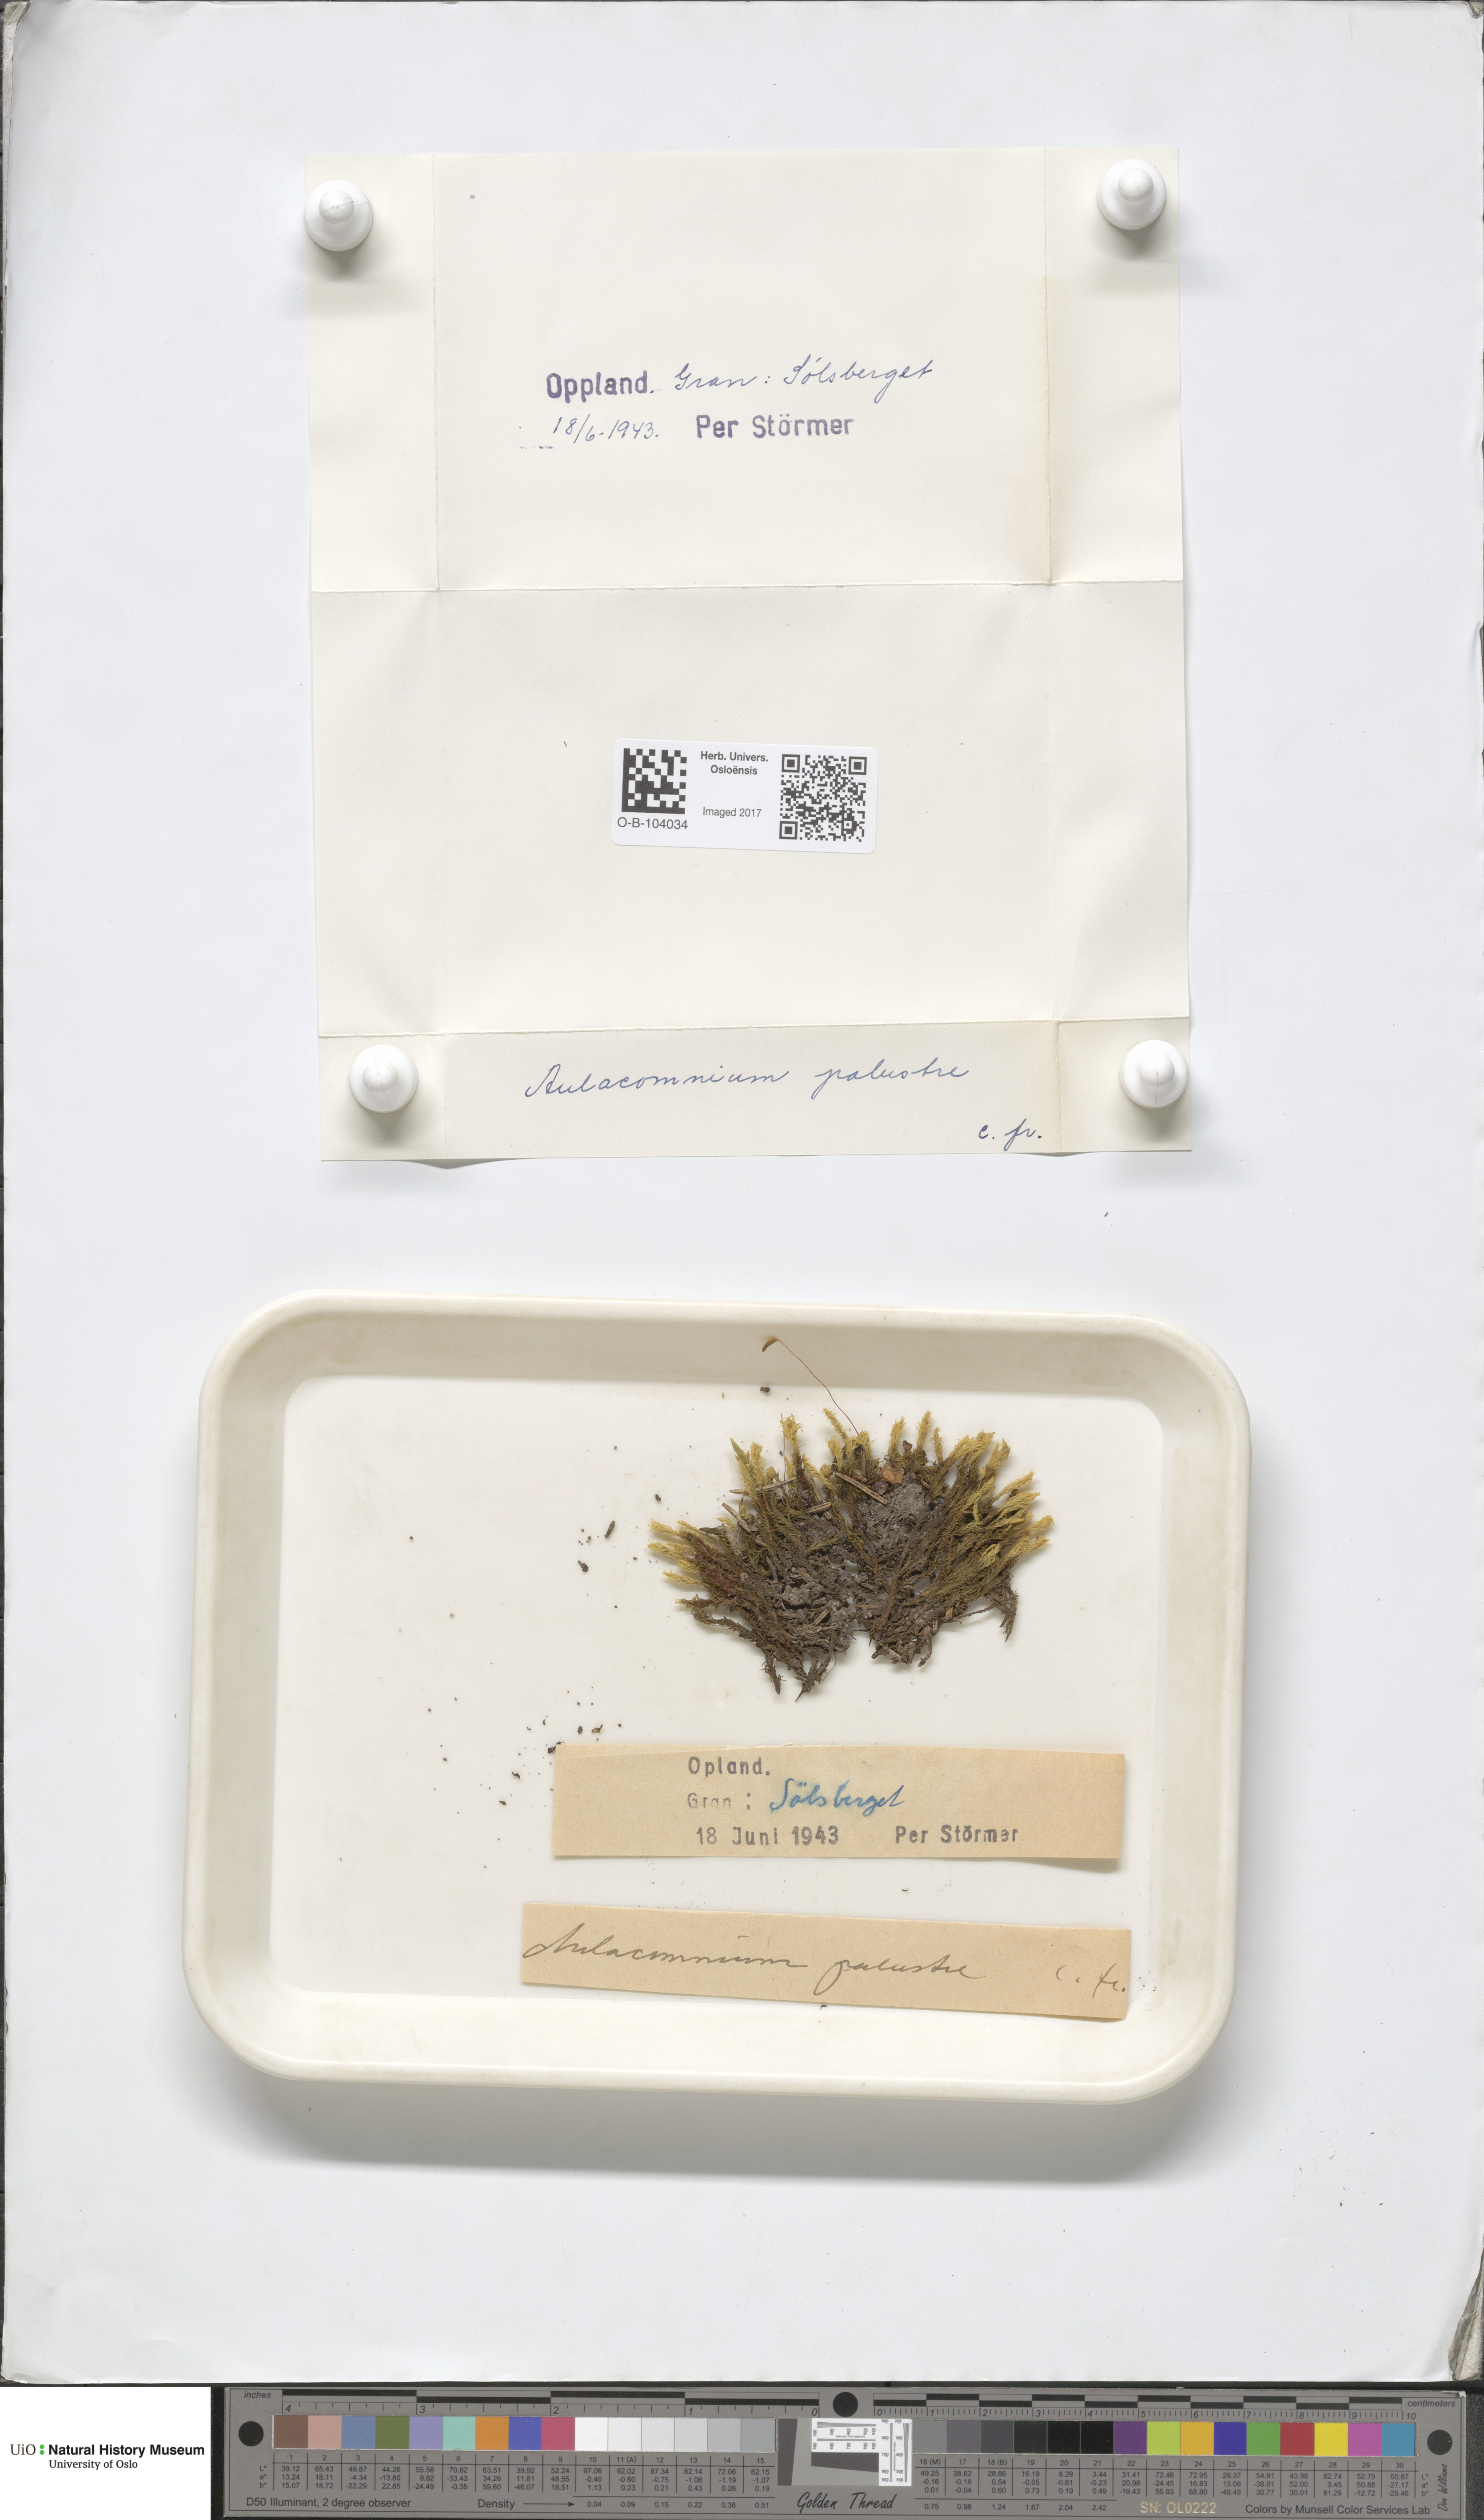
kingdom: Plantae
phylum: Bryophyta
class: Bryopsida
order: Aulacomniales
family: Aulacomniaceae
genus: Aulacomnium
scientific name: Aulacomnium palustre
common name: Bog groove-moss
